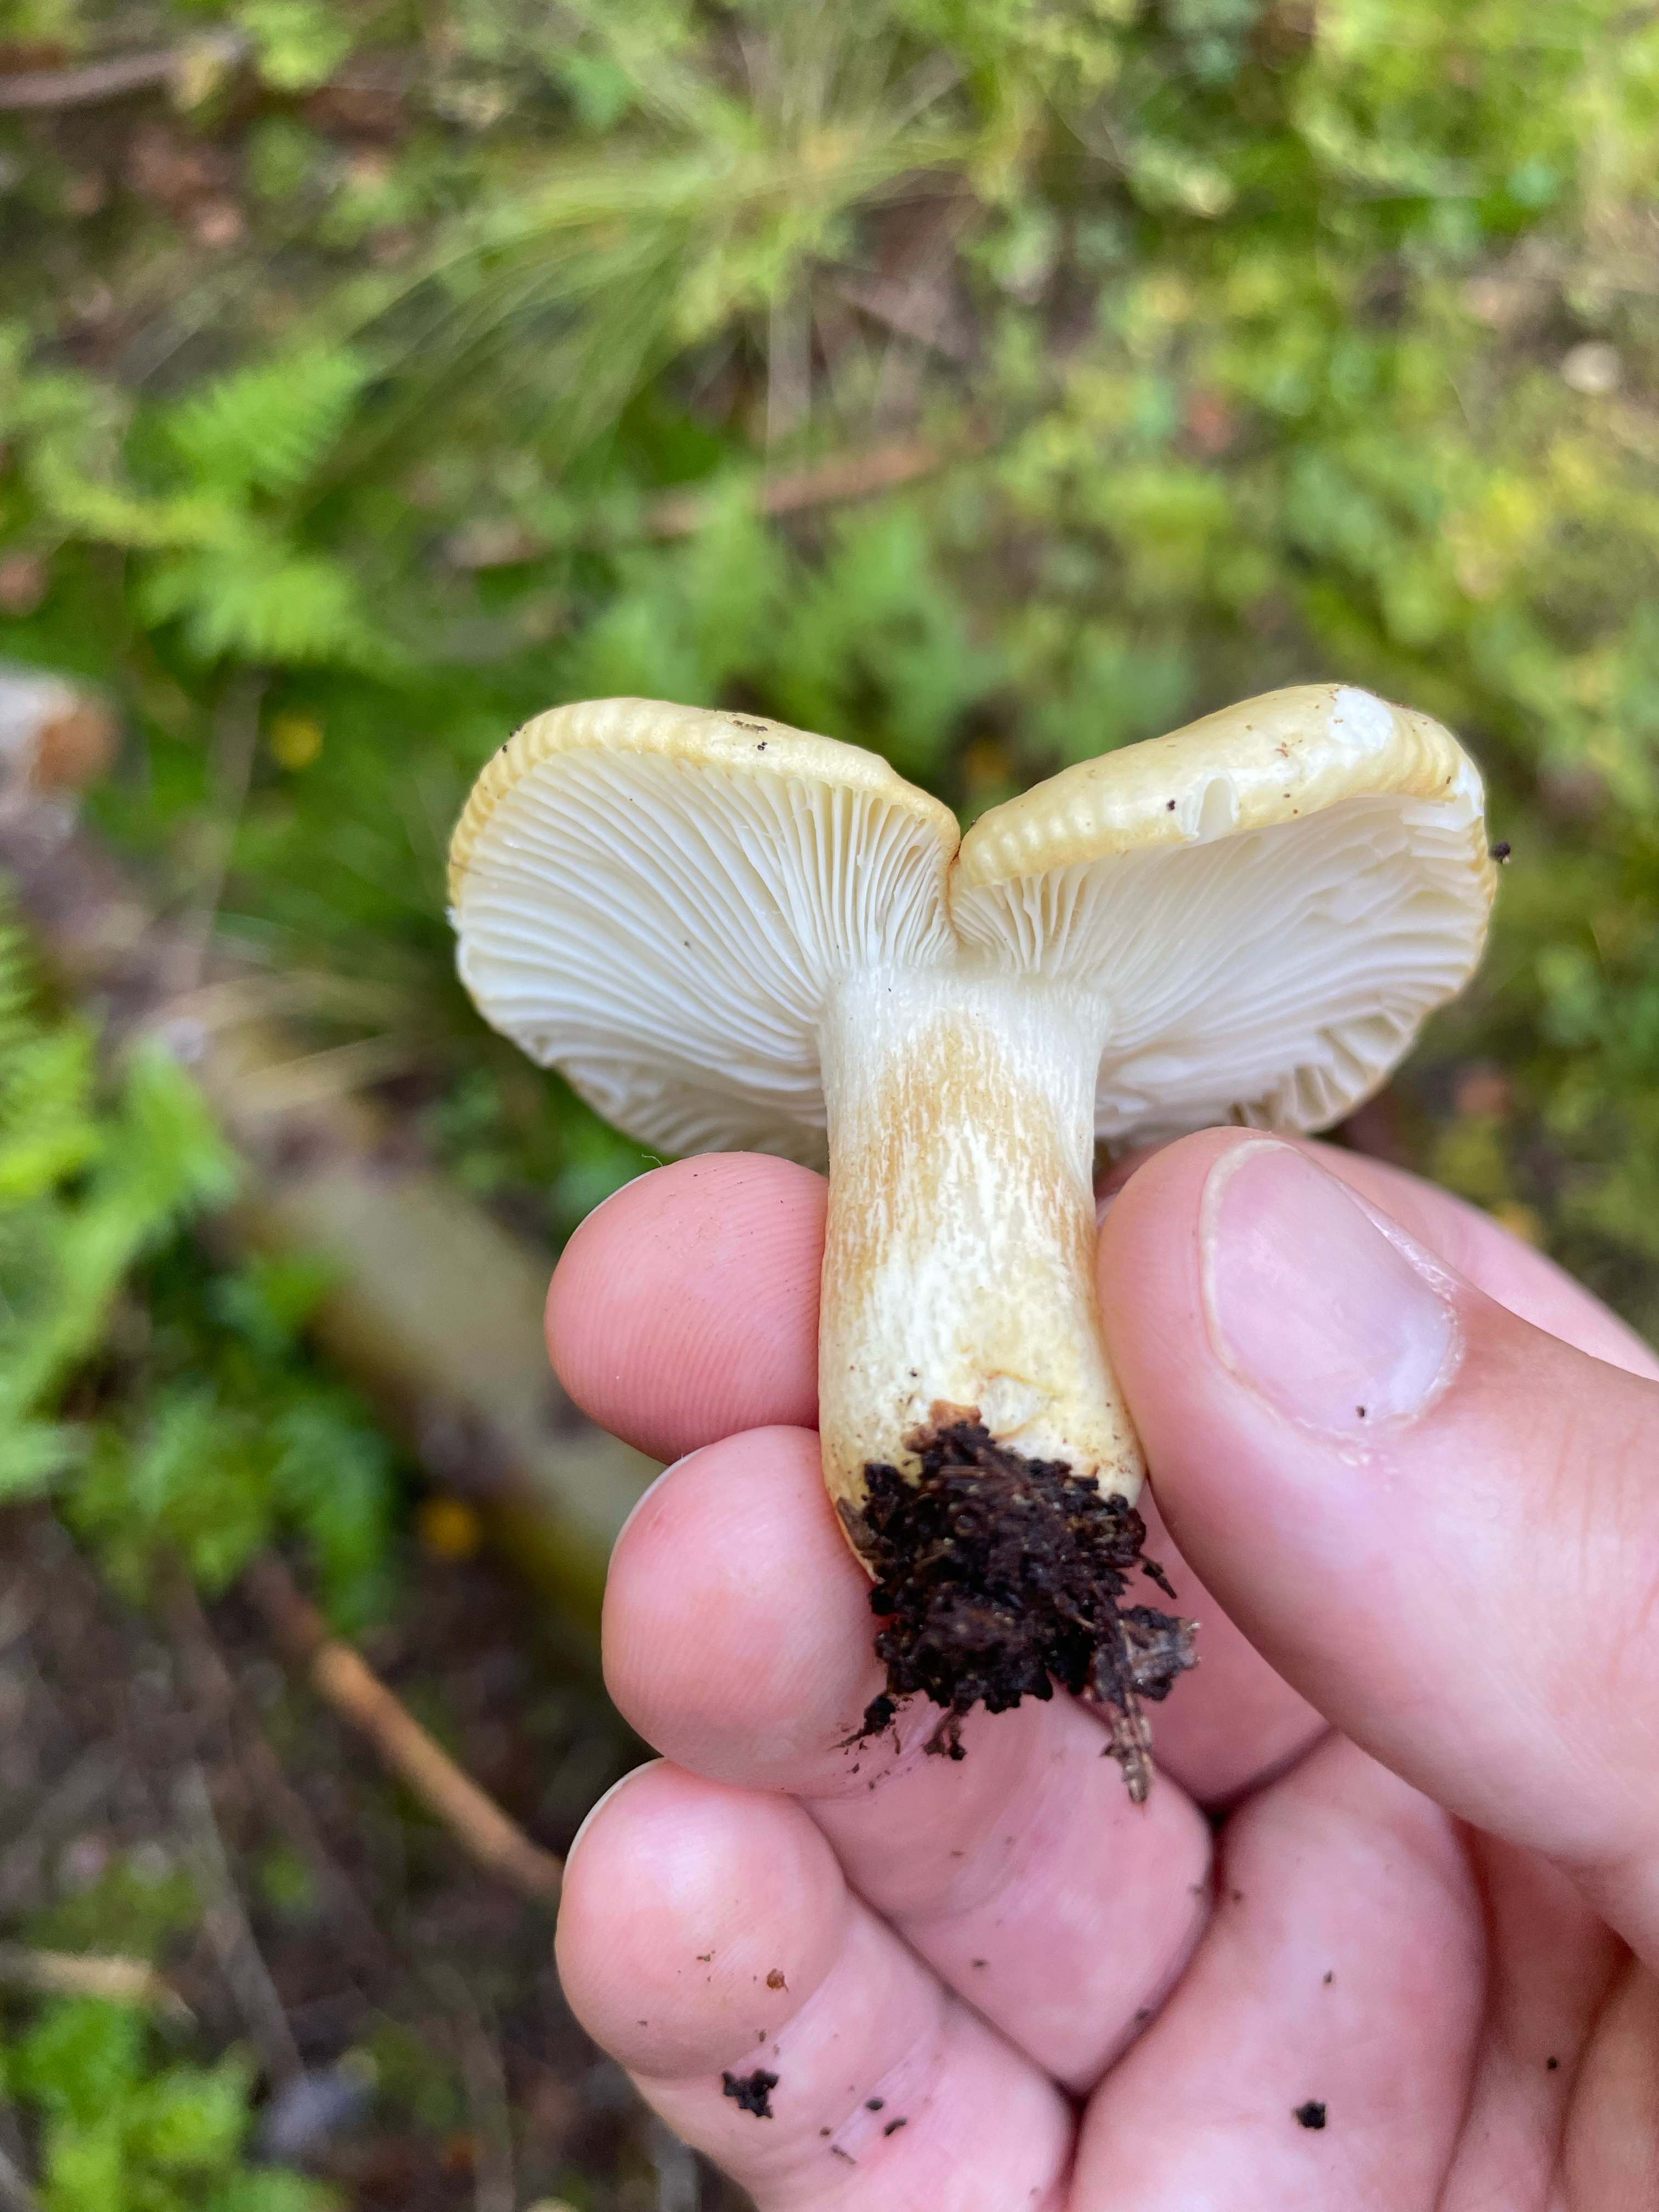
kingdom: Fungi
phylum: Basidiomycota
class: Agaricomycetes
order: Russulales
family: Russulaceae
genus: Russula
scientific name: Russula
